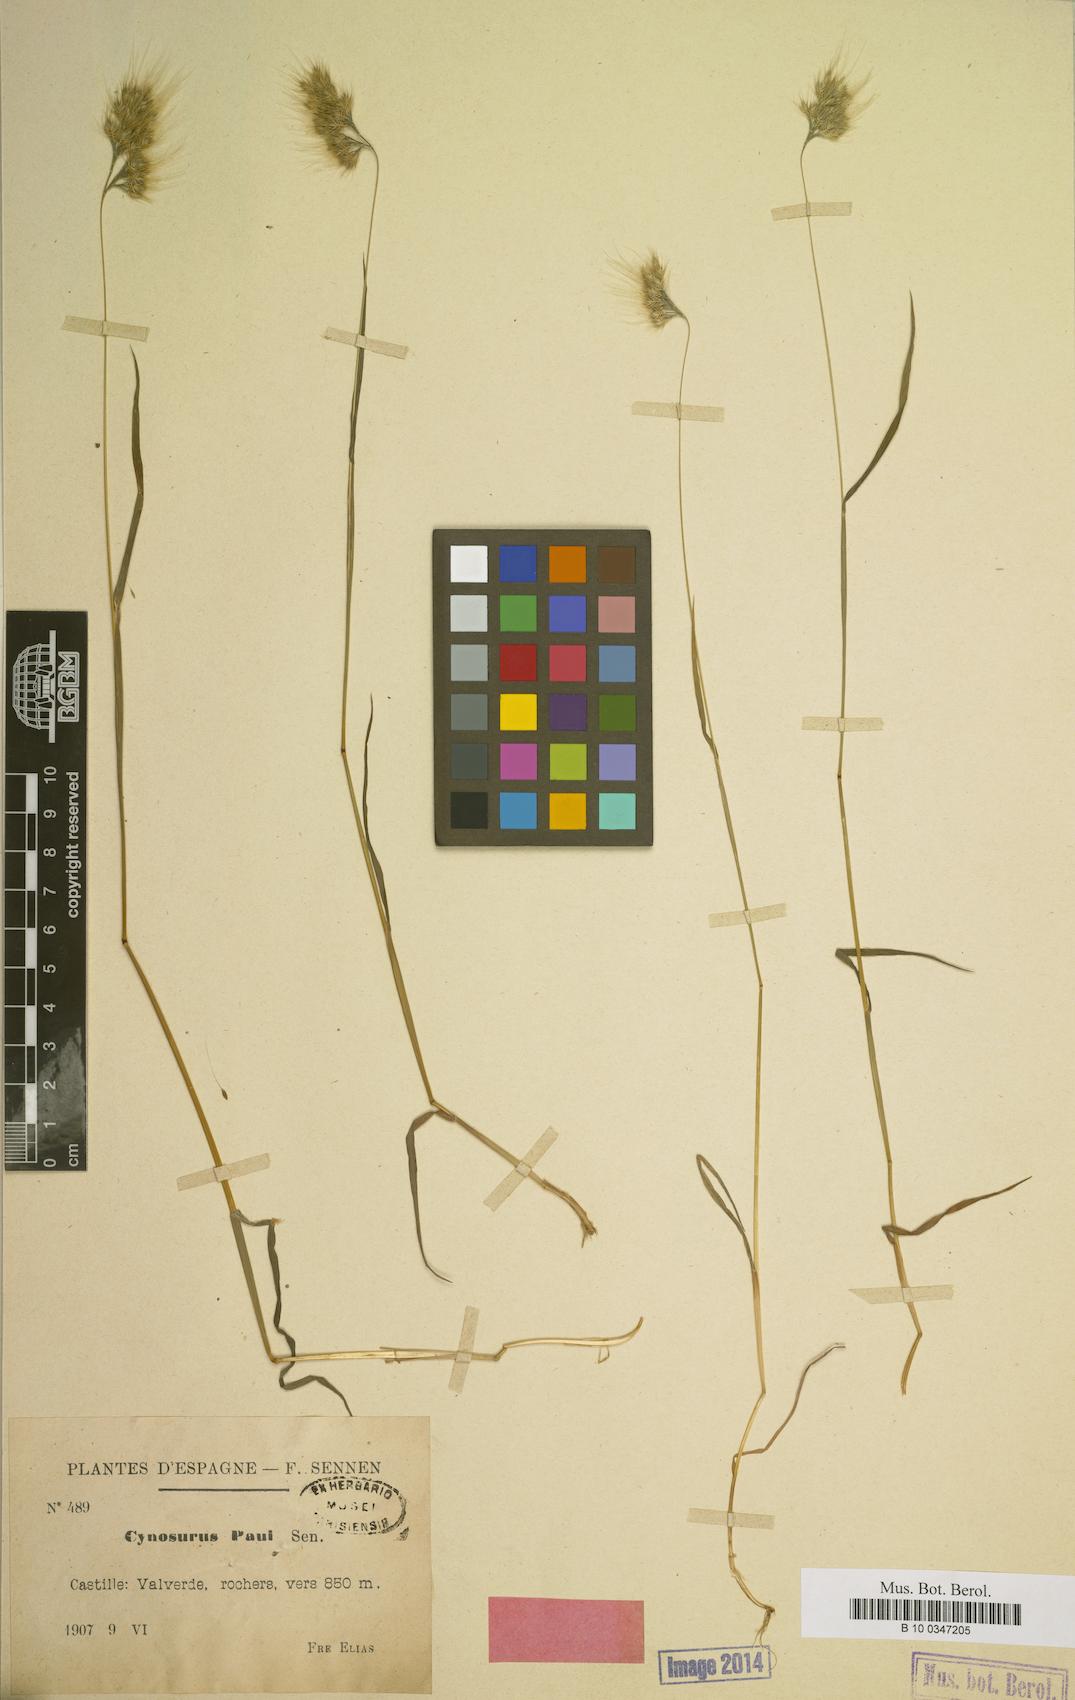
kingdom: Plantae
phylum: Tracheophyta
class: Liliopsida
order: Poales
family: Poaceae
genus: Cynosurus
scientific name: Cynosurus effusus
